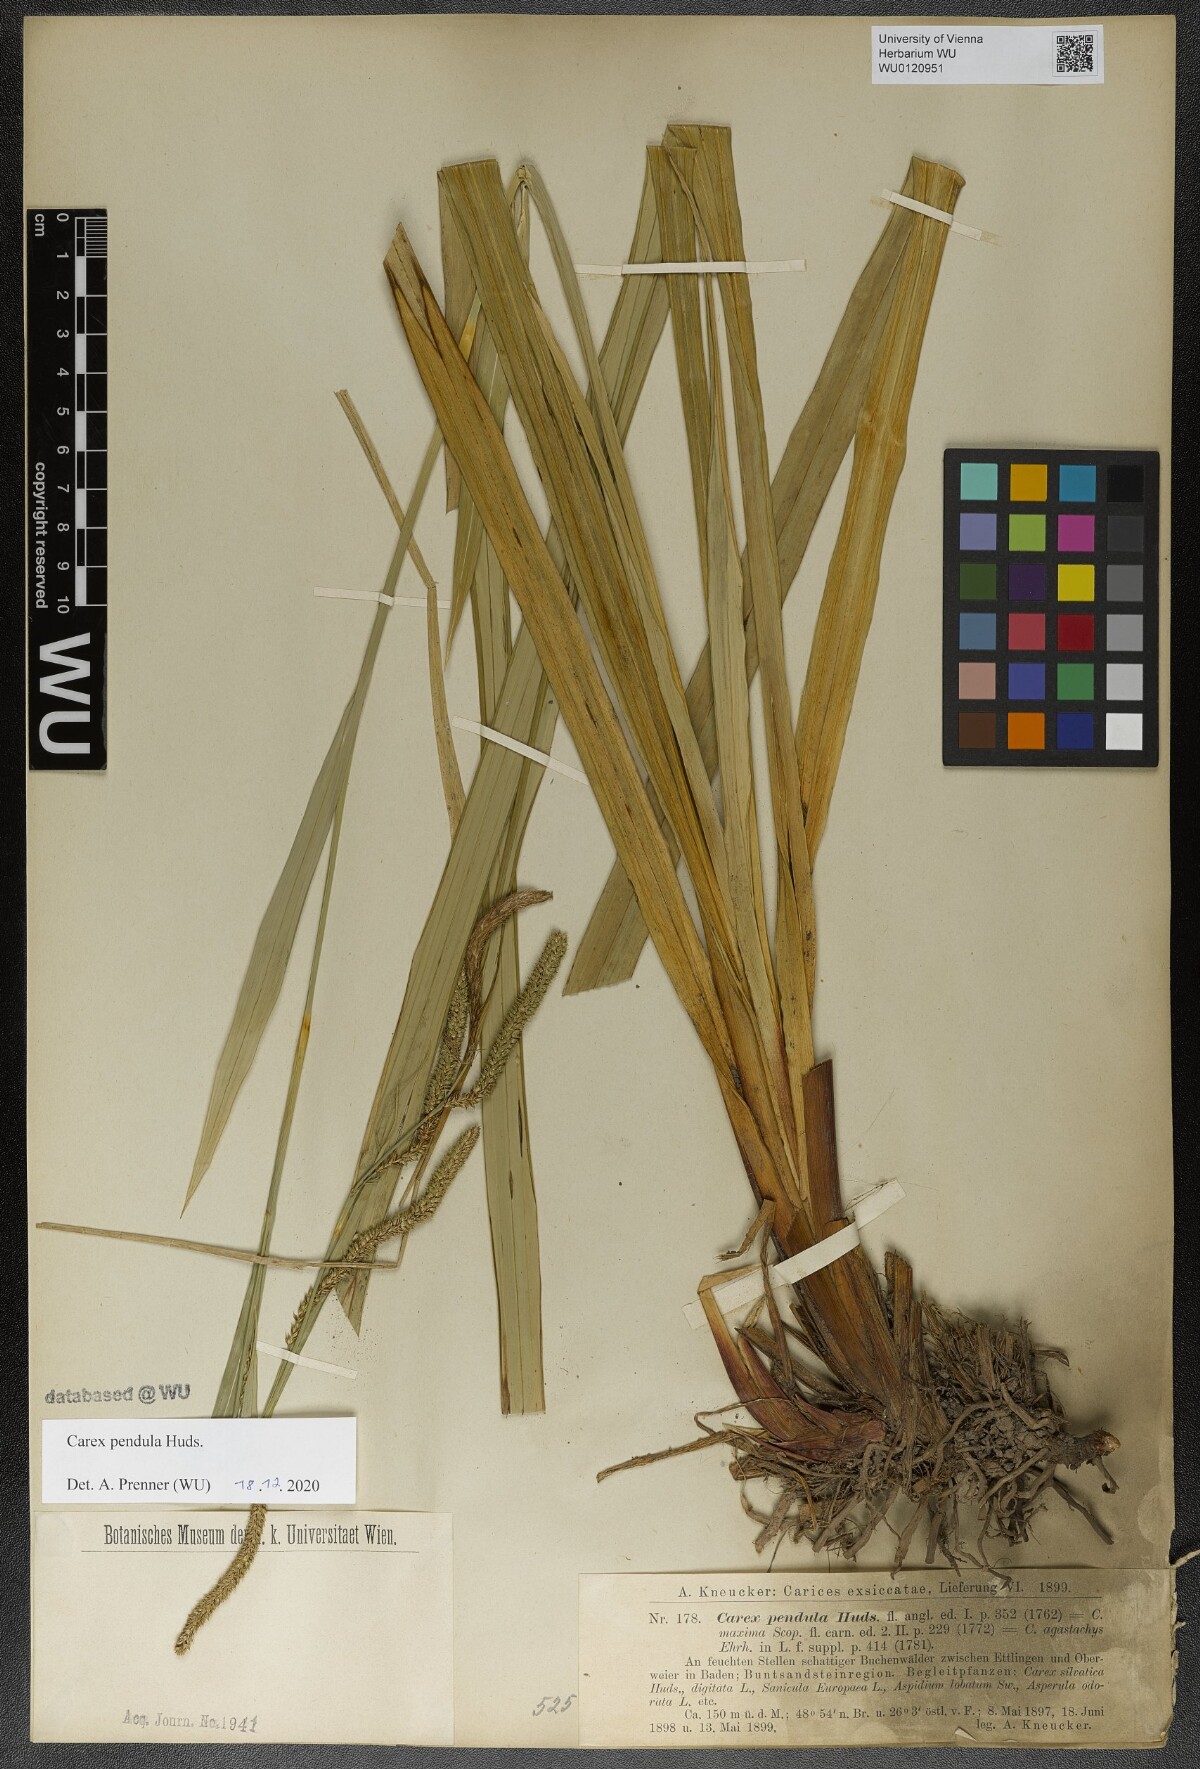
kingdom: Plantae
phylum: Tracheophyta
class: Liliopsida
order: Poales
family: Cyperaceae
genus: Carex
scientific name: Carex pendula
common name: Pendulous sedge
